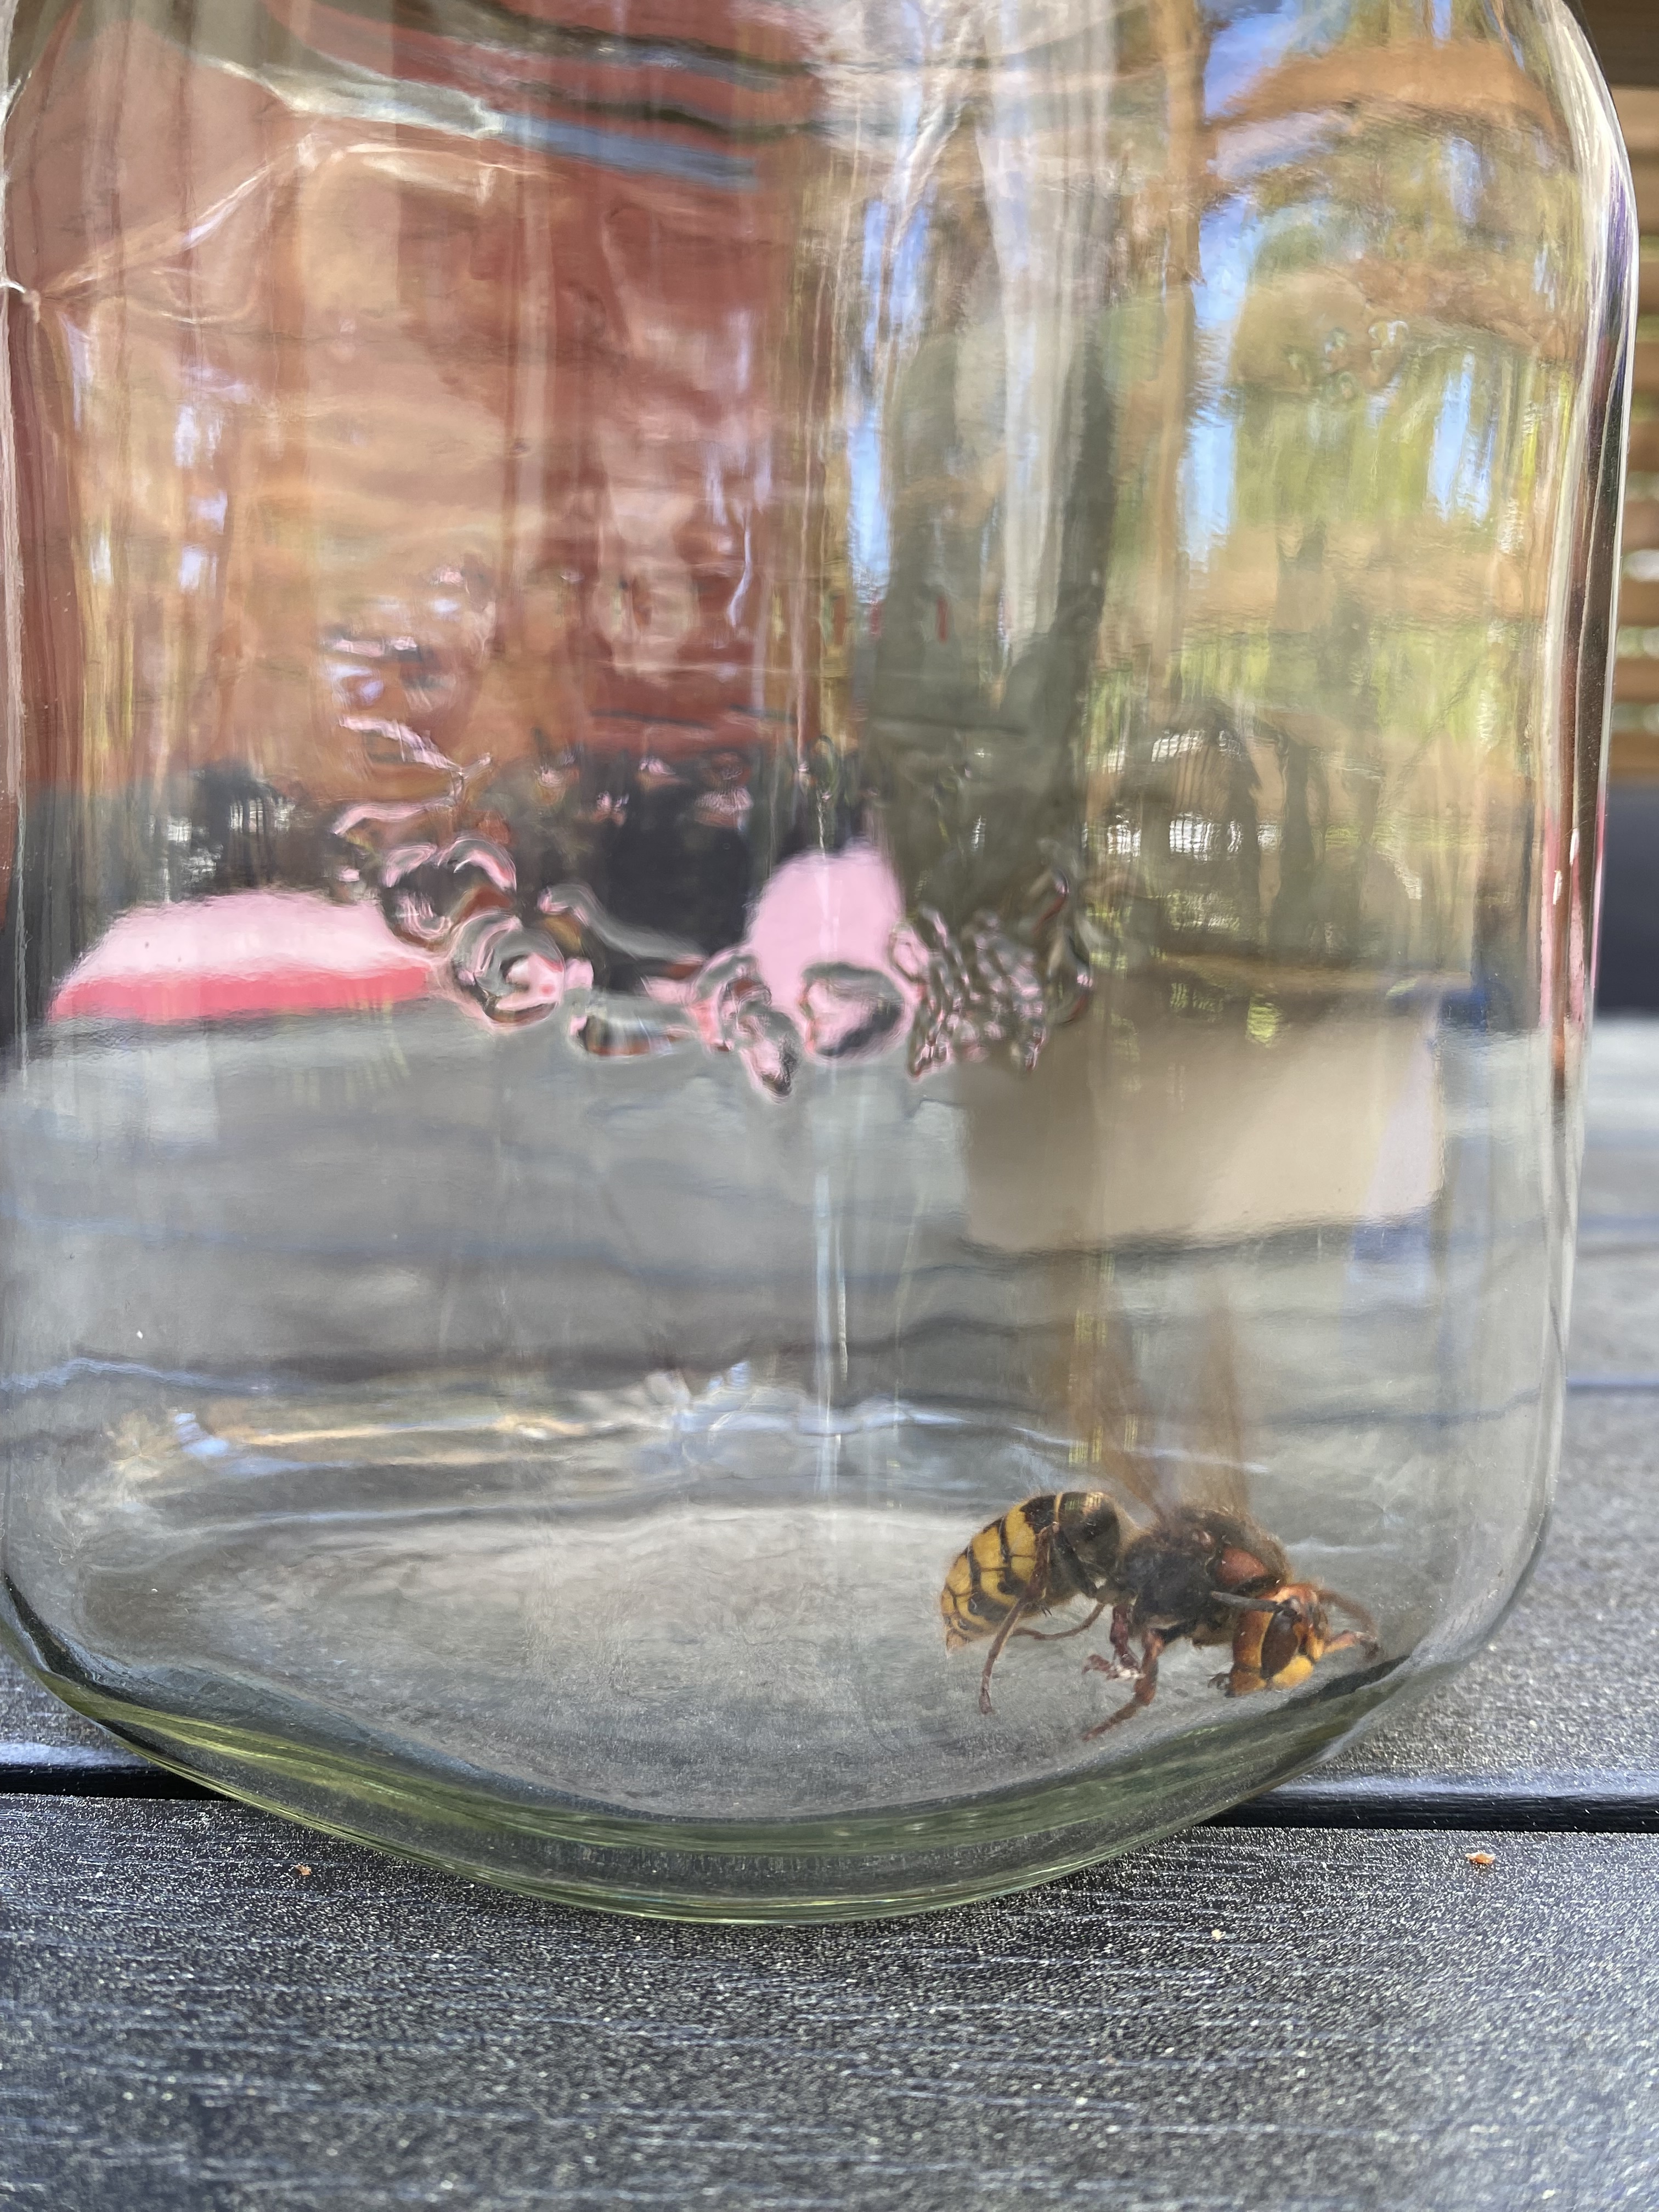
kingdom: Animalia
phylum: Arthropoda
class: Insecta
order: Hymenoptera
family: Vespidae
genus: Vespa
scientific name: Vespa crabro
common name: Hornet
